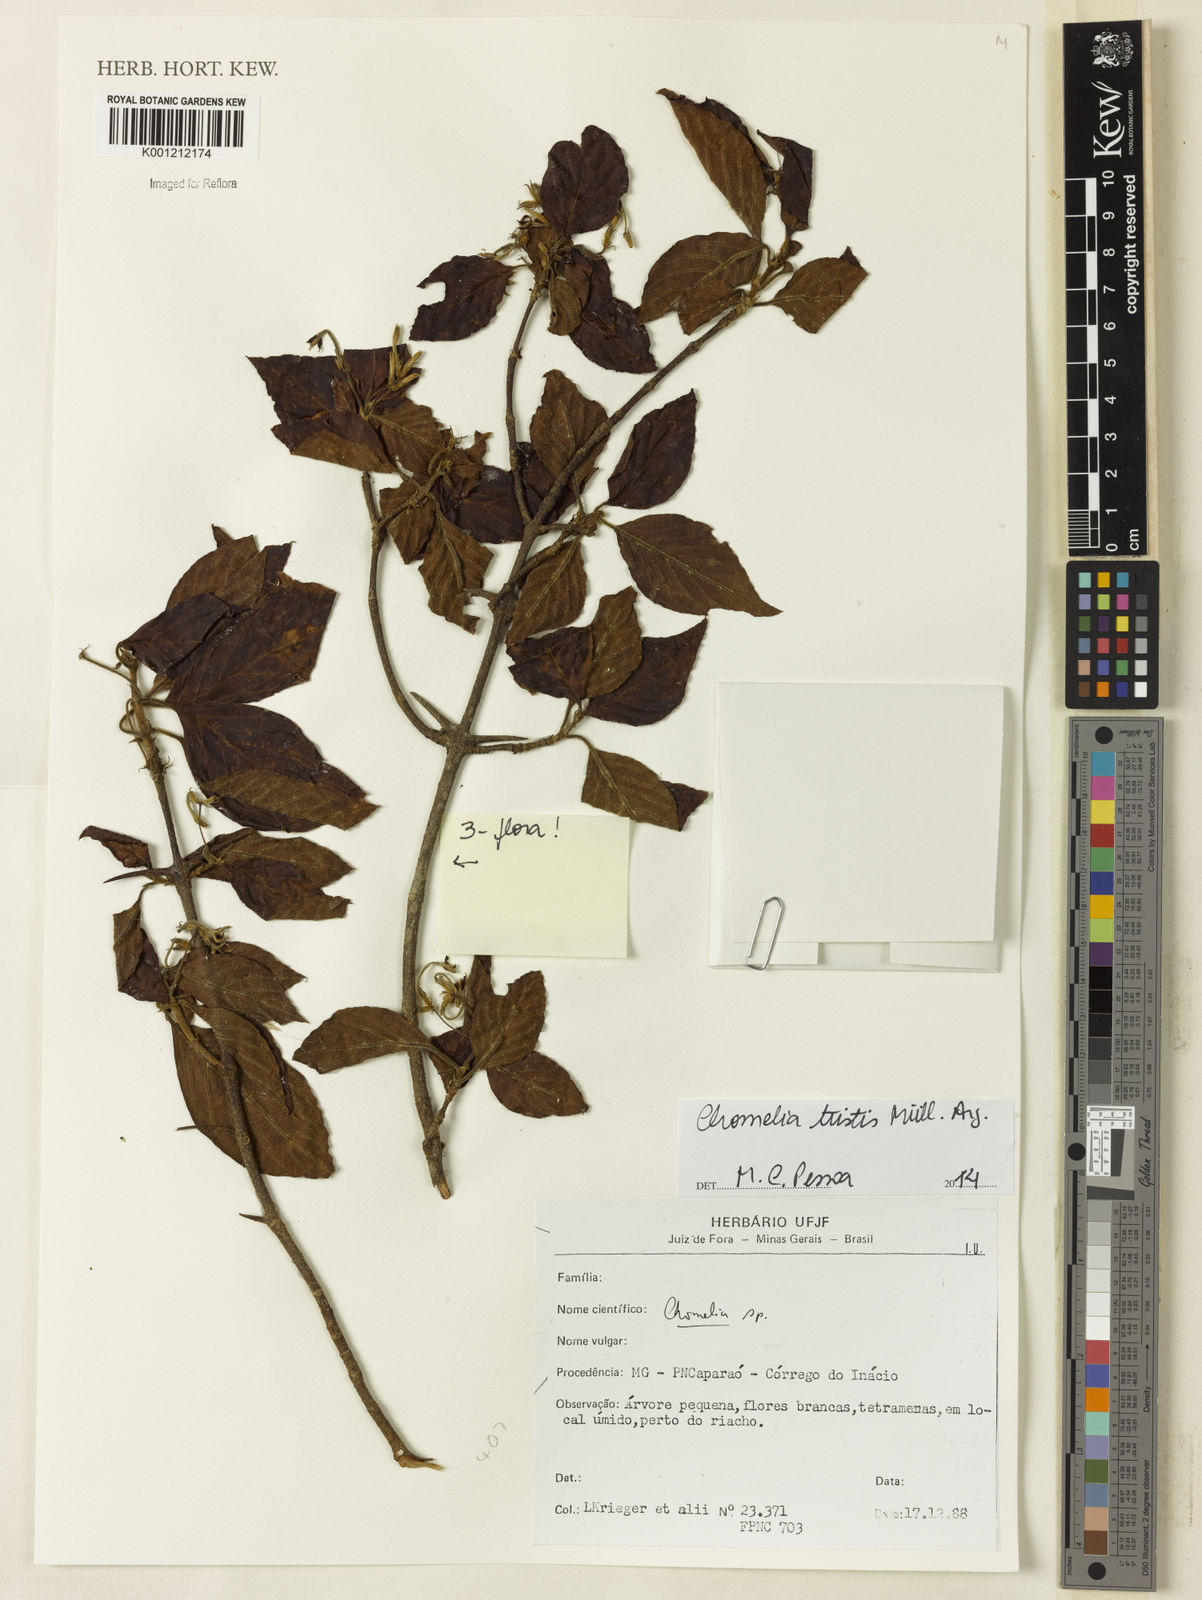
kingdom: Plantae
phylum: Tracheophyta
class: Magnoliopsida
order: Gentianales
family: Rubiaceae
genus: Chomelia
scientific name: Chomelia
